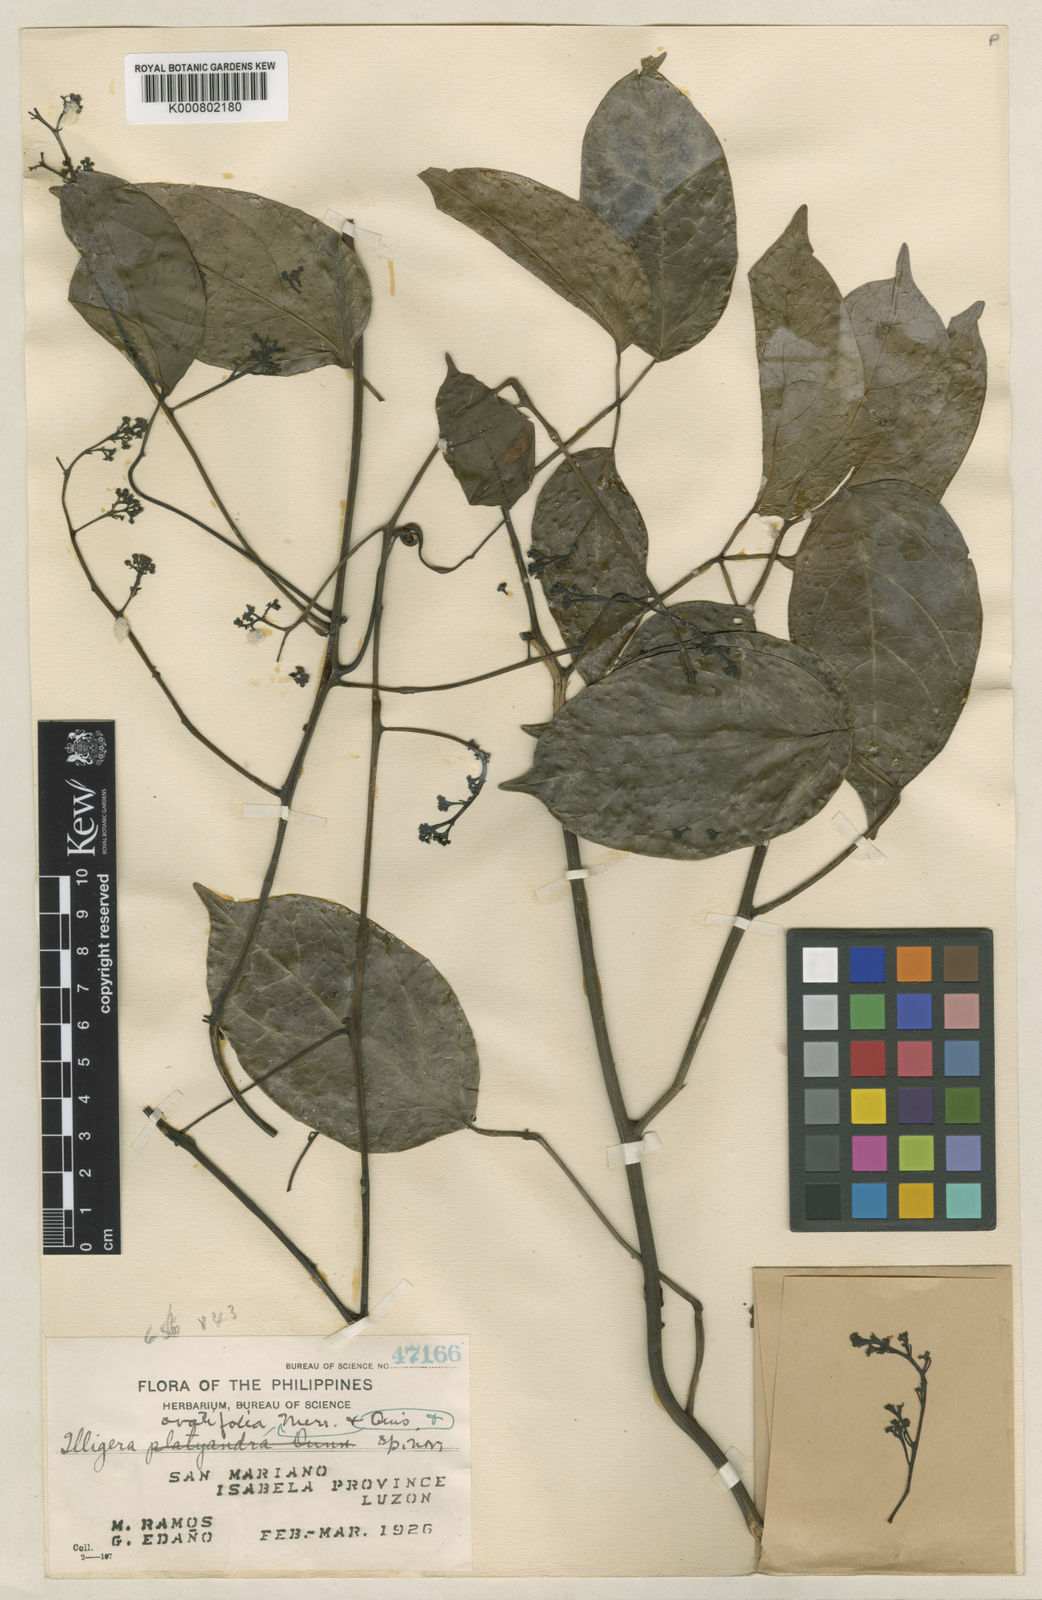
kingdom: Plantae
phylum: Tracheophyta
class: Magnoliopsida
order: Laurales
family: Hernandiaceae
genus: Illigera
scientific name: Illigera celebica
